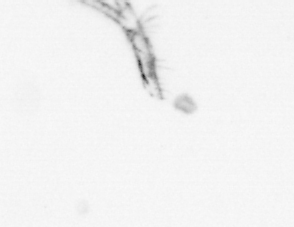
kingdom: Chromista
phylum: Ochrophyta
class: Bacillariophyceae
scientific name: Bacillariophyceae
